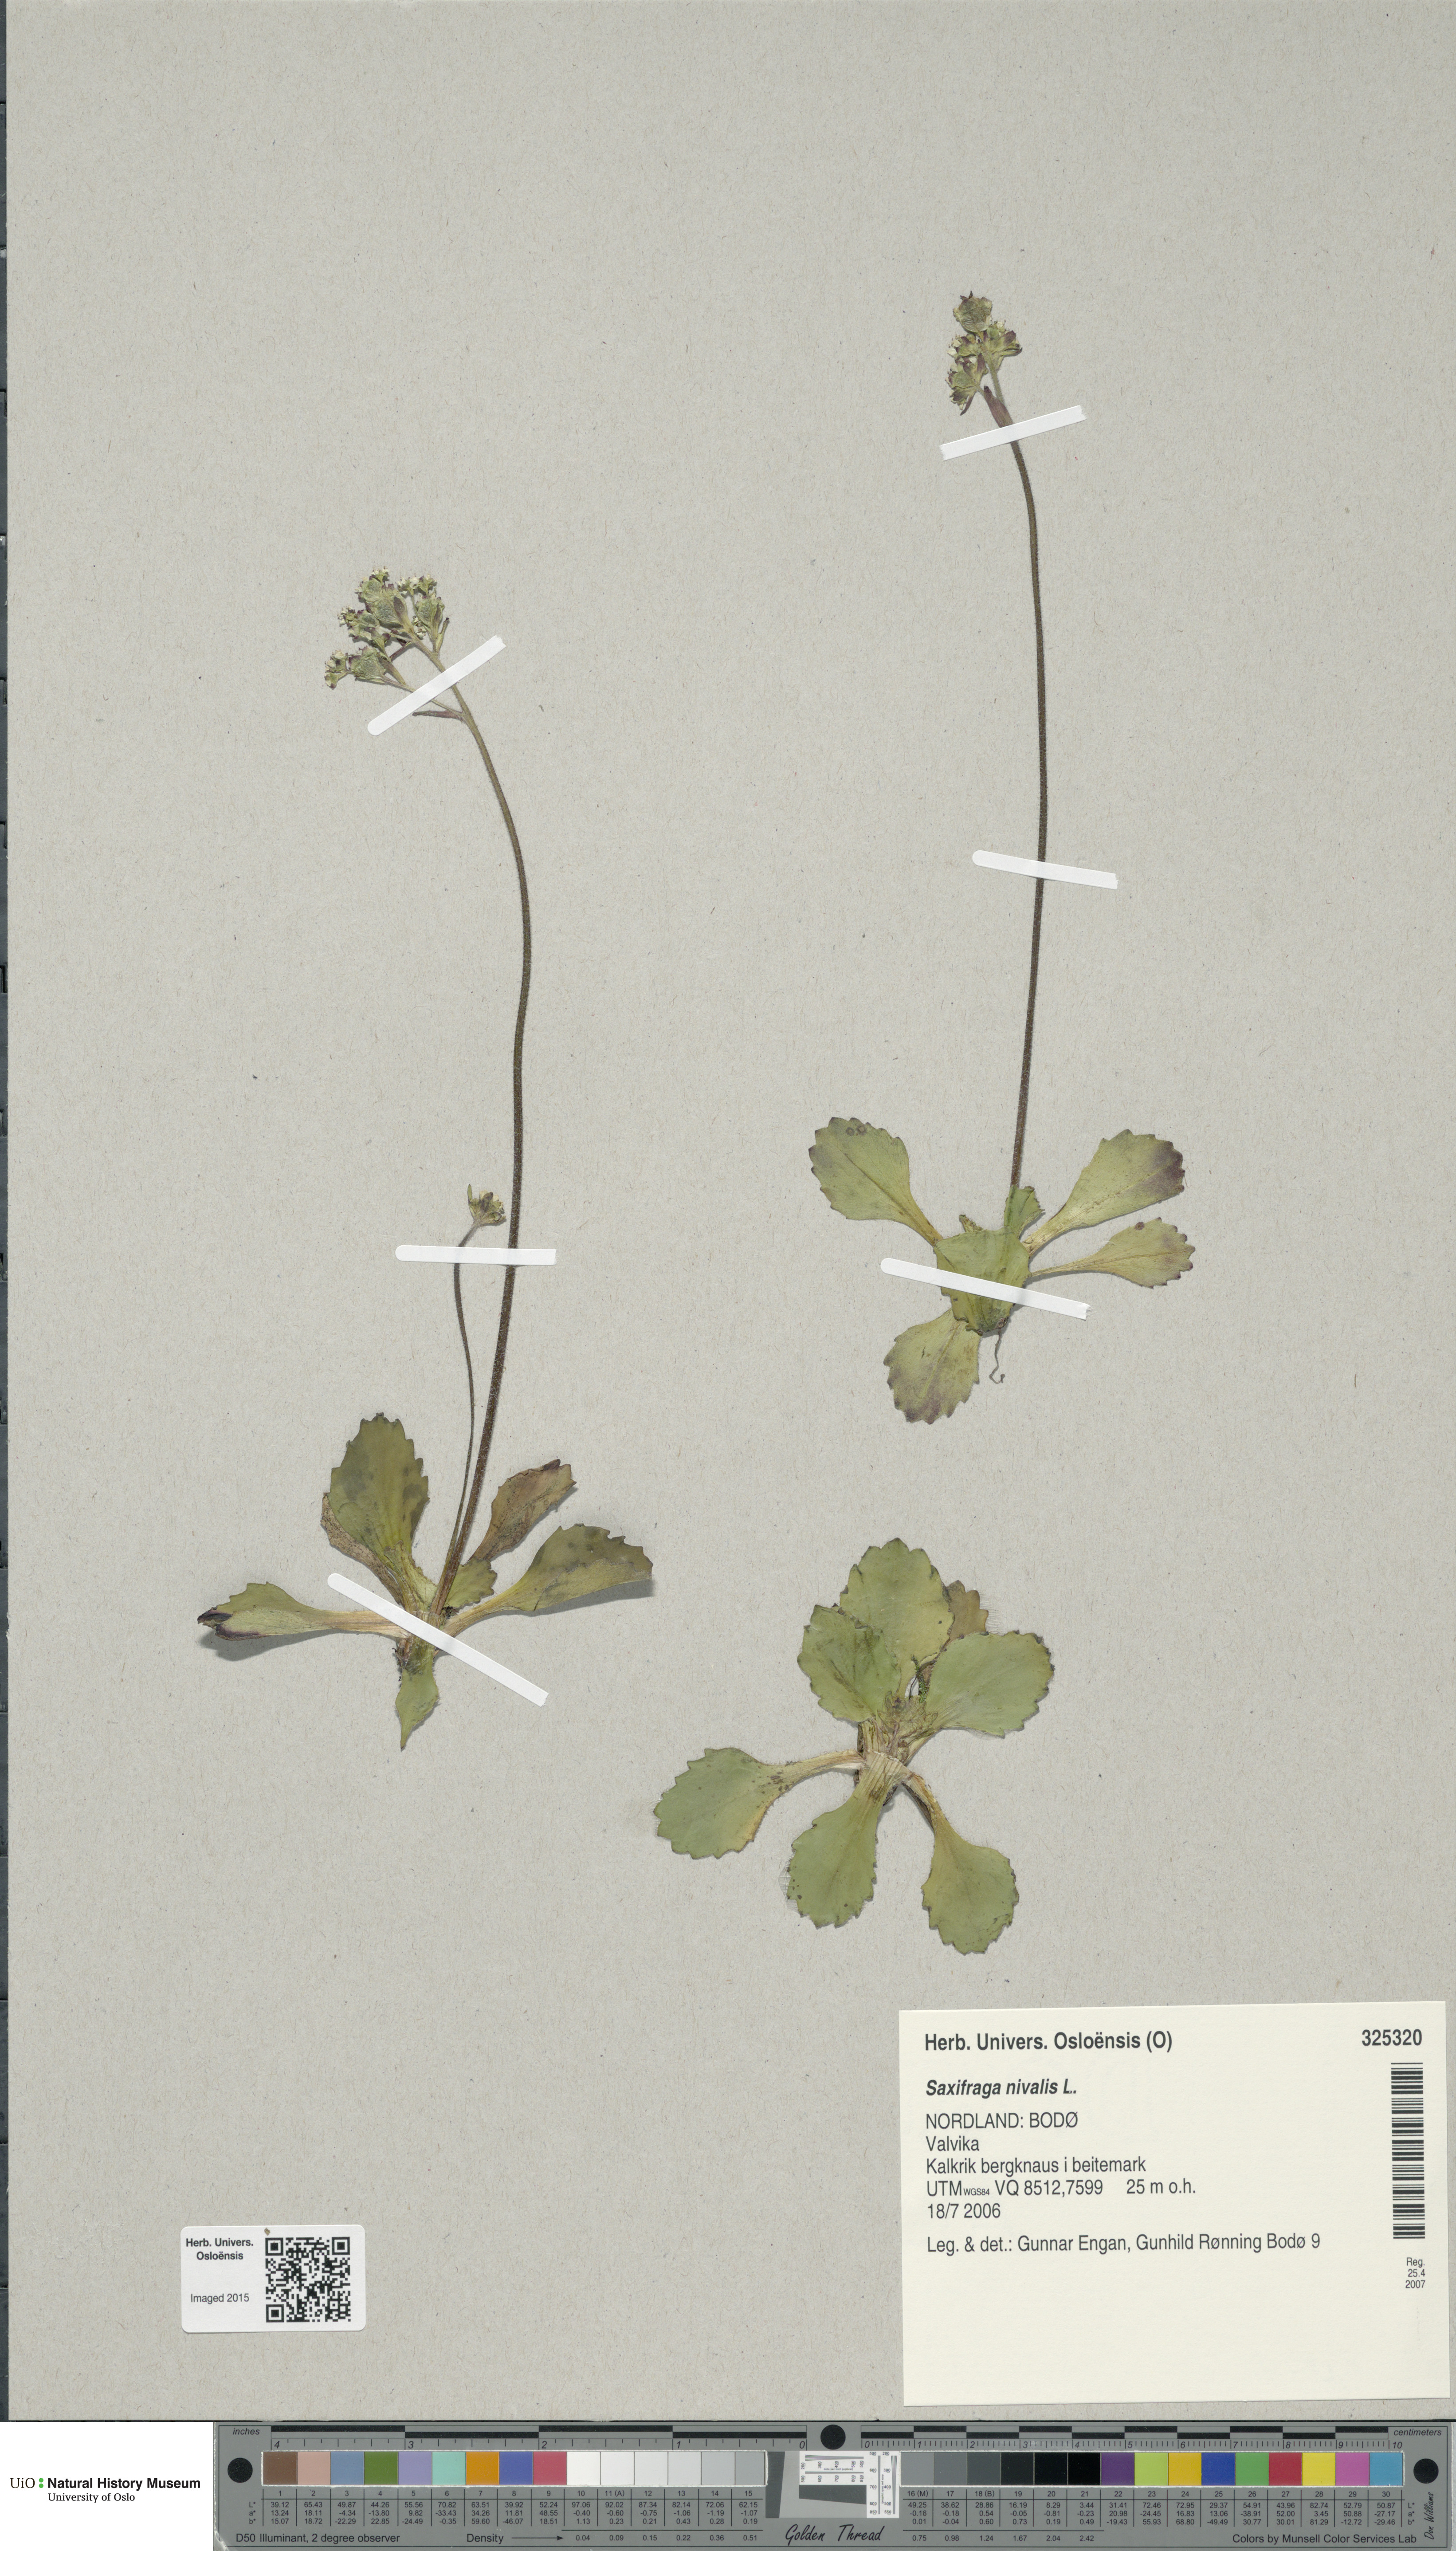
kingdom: Plantae
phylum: Tracheophyta
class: Magnoliopsida
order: Saxifragales
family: Saxifragaceae
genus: Micranthes
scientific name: Micranthes nivalis
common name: Alpine saxifrage
